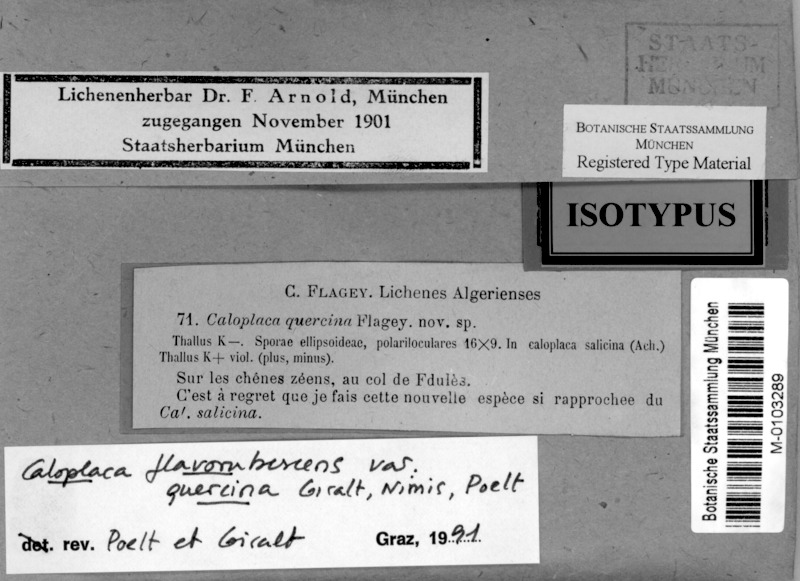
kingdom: Fungi
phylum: Ascomycota
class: Lecanoromycetes
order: Teloschistales
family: Teloschistaceae
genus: Opeltia
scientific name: Opeltia flavorubescens
